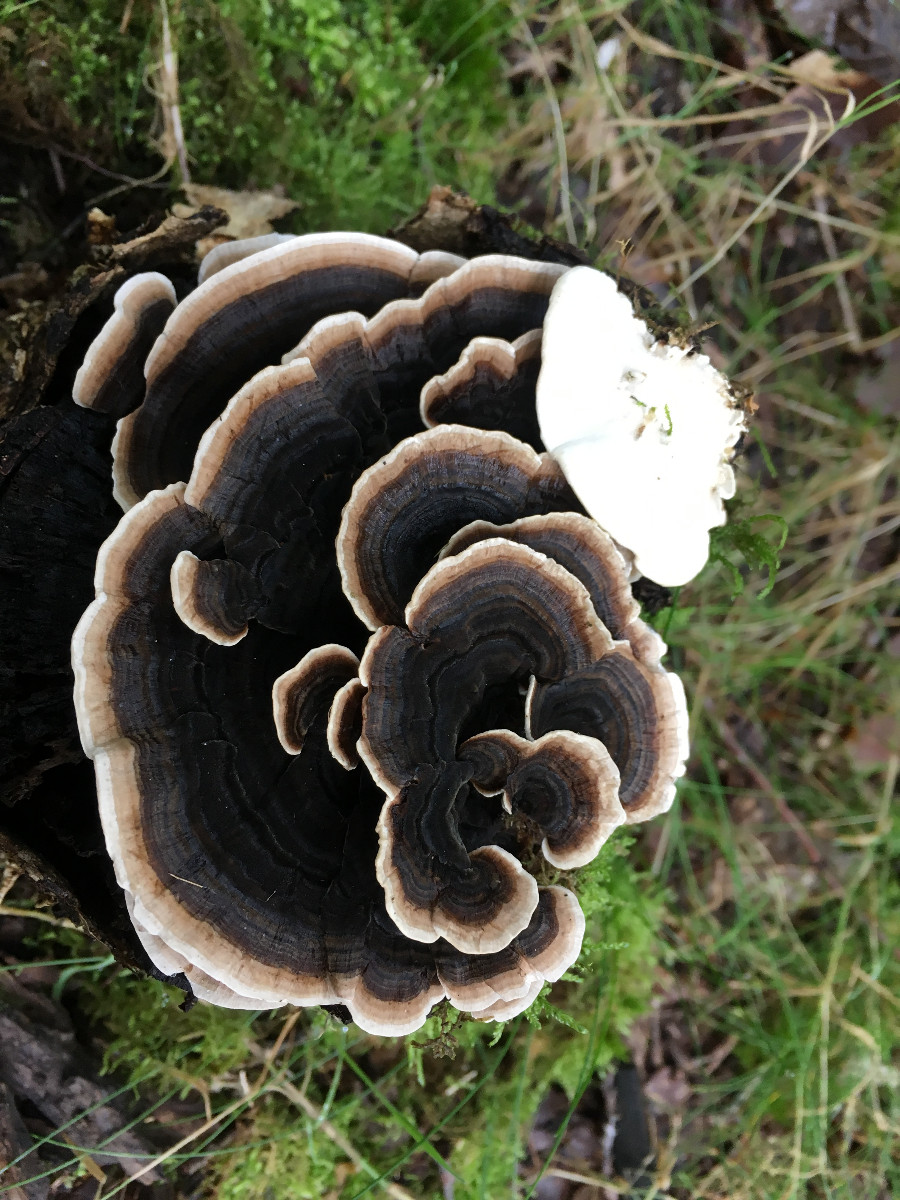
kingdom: Fungi
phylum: Basidiomycota
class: Agaricomycetes
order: Polyporales
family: Polyporaceae
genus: Trametes
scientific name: Trametes versicolor
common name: broget læderporesvamp
